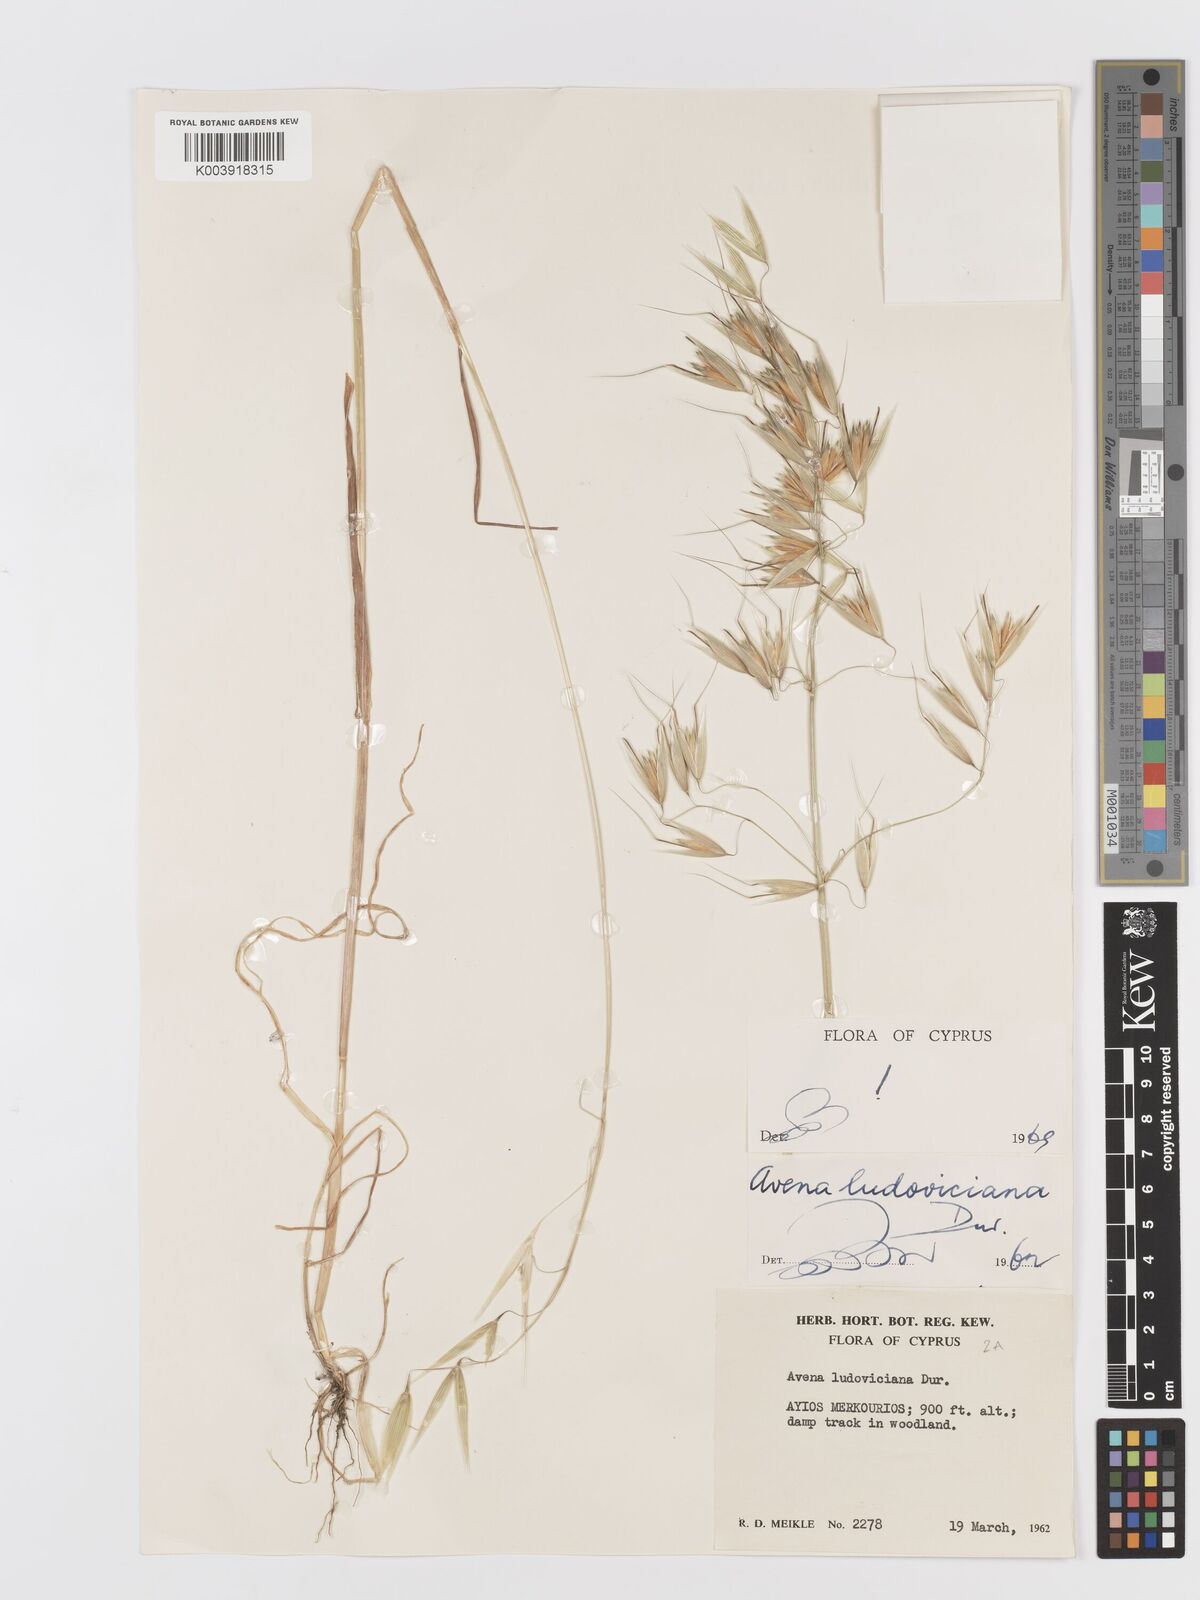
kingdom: Plantae
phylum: Tracheophyta
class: Liliopsida
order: Poales
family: Poaceae
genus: Avena
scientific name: Avena sterilis
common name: Animated oat
